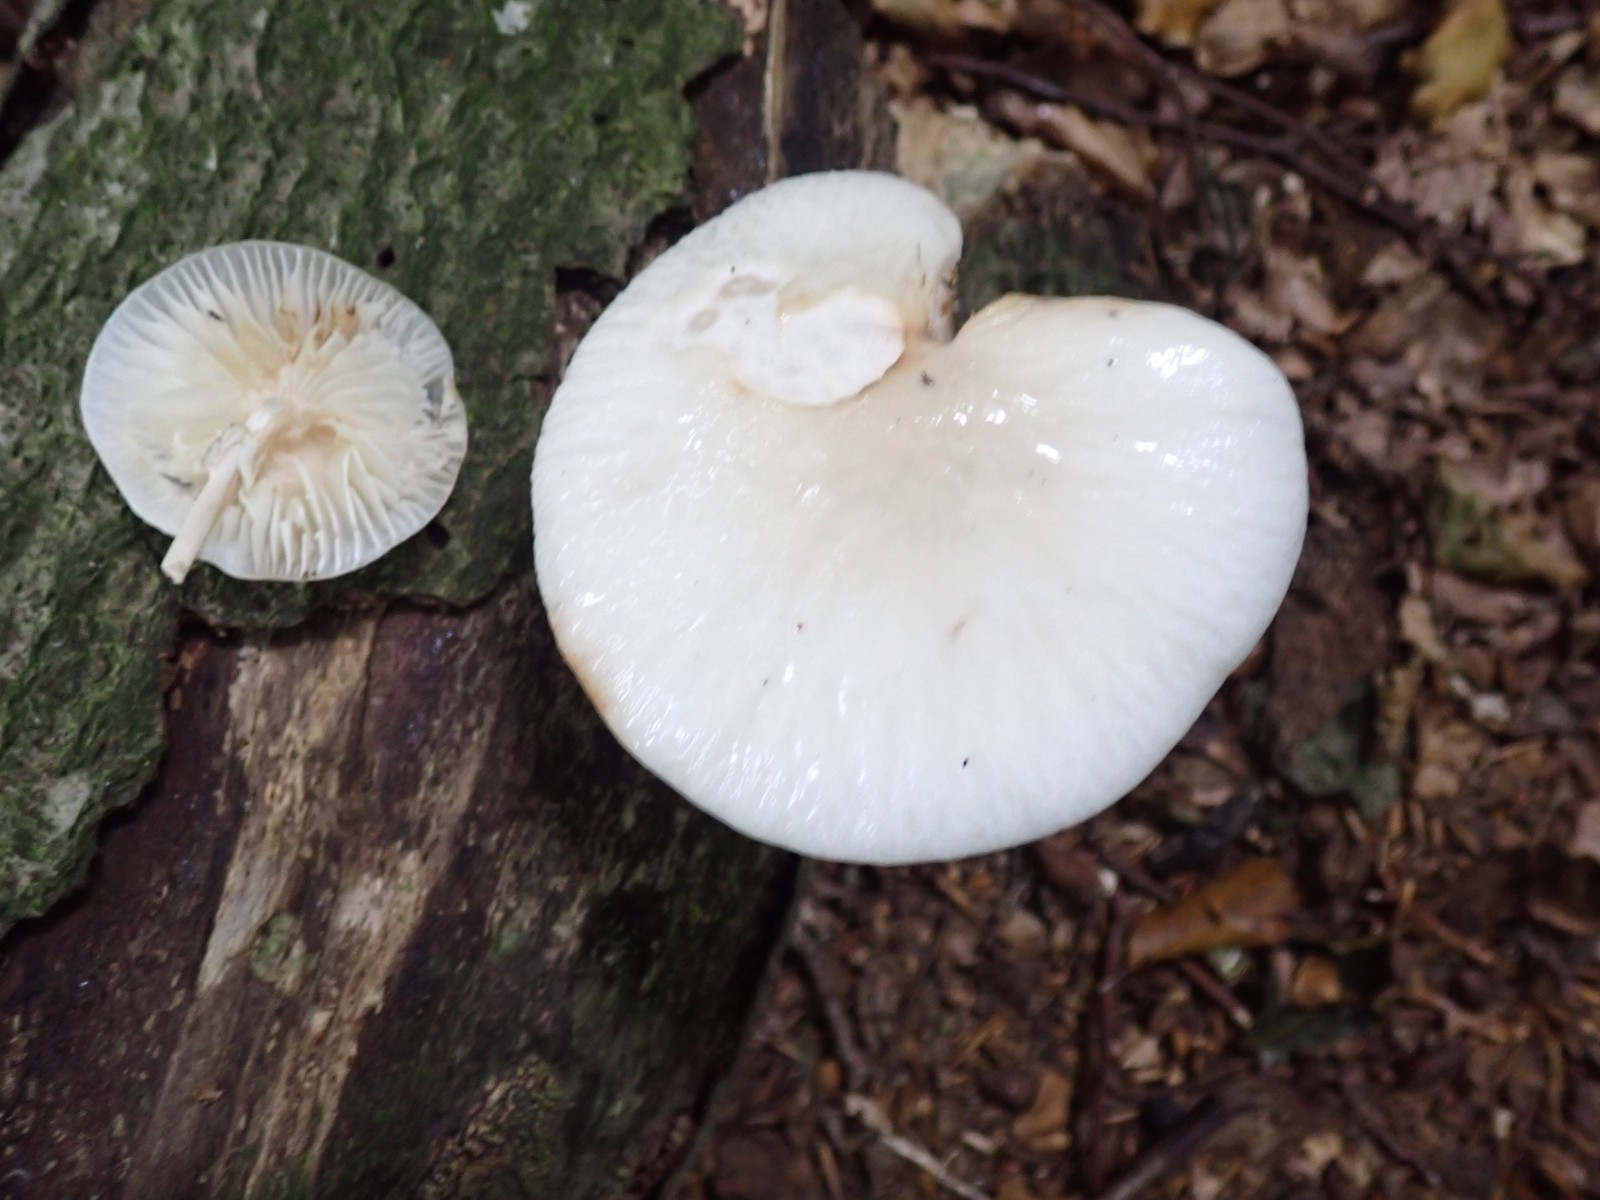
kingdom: Fungi
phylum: Basidiomycota
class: Agaricomycetes
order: Agaricales
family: Physalacriaceae
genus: Mucidula
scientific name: Mucidula mucida
